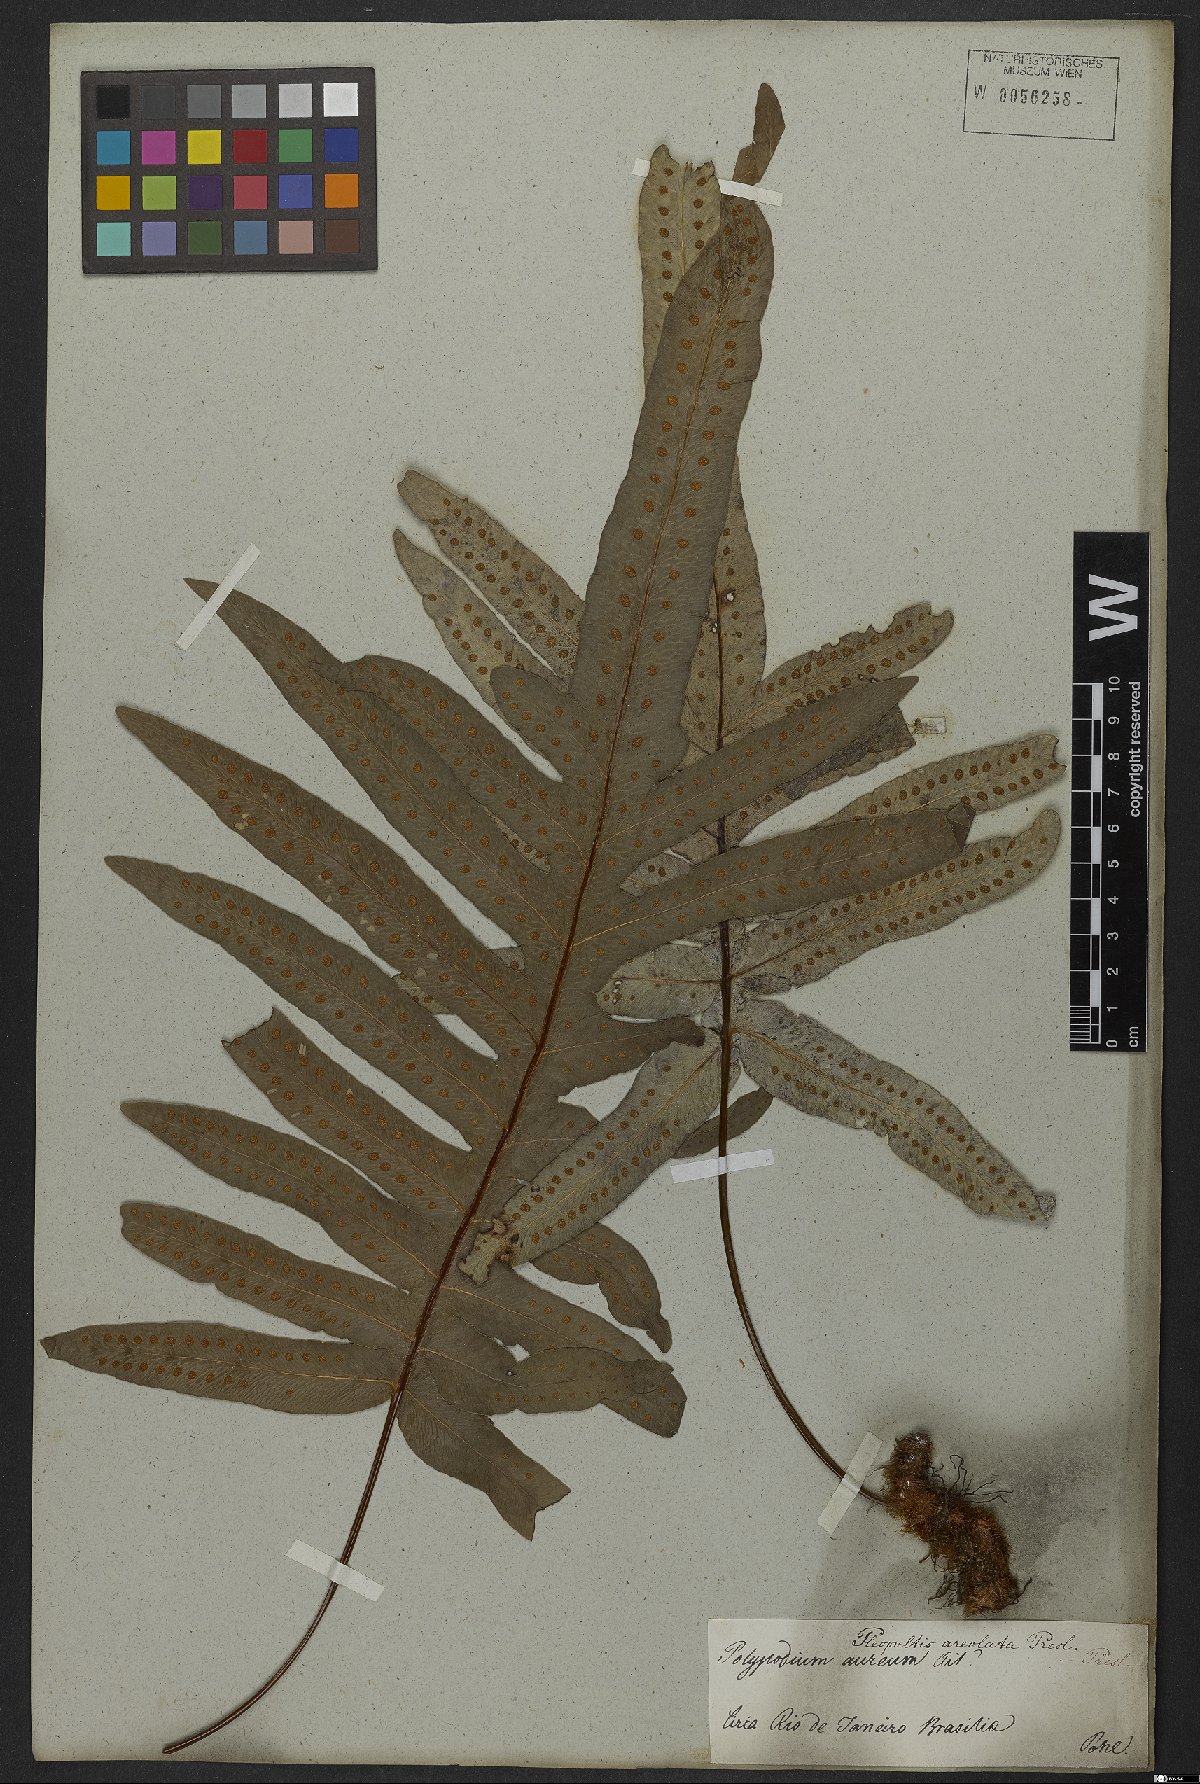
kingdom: Plantae
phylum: Tracheophyta
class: Polypodiopsida
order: Polypodiales
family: Polypodiaceae
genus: Phlebodium
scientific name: Phlebodium aureum
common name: Gold-foot fern
